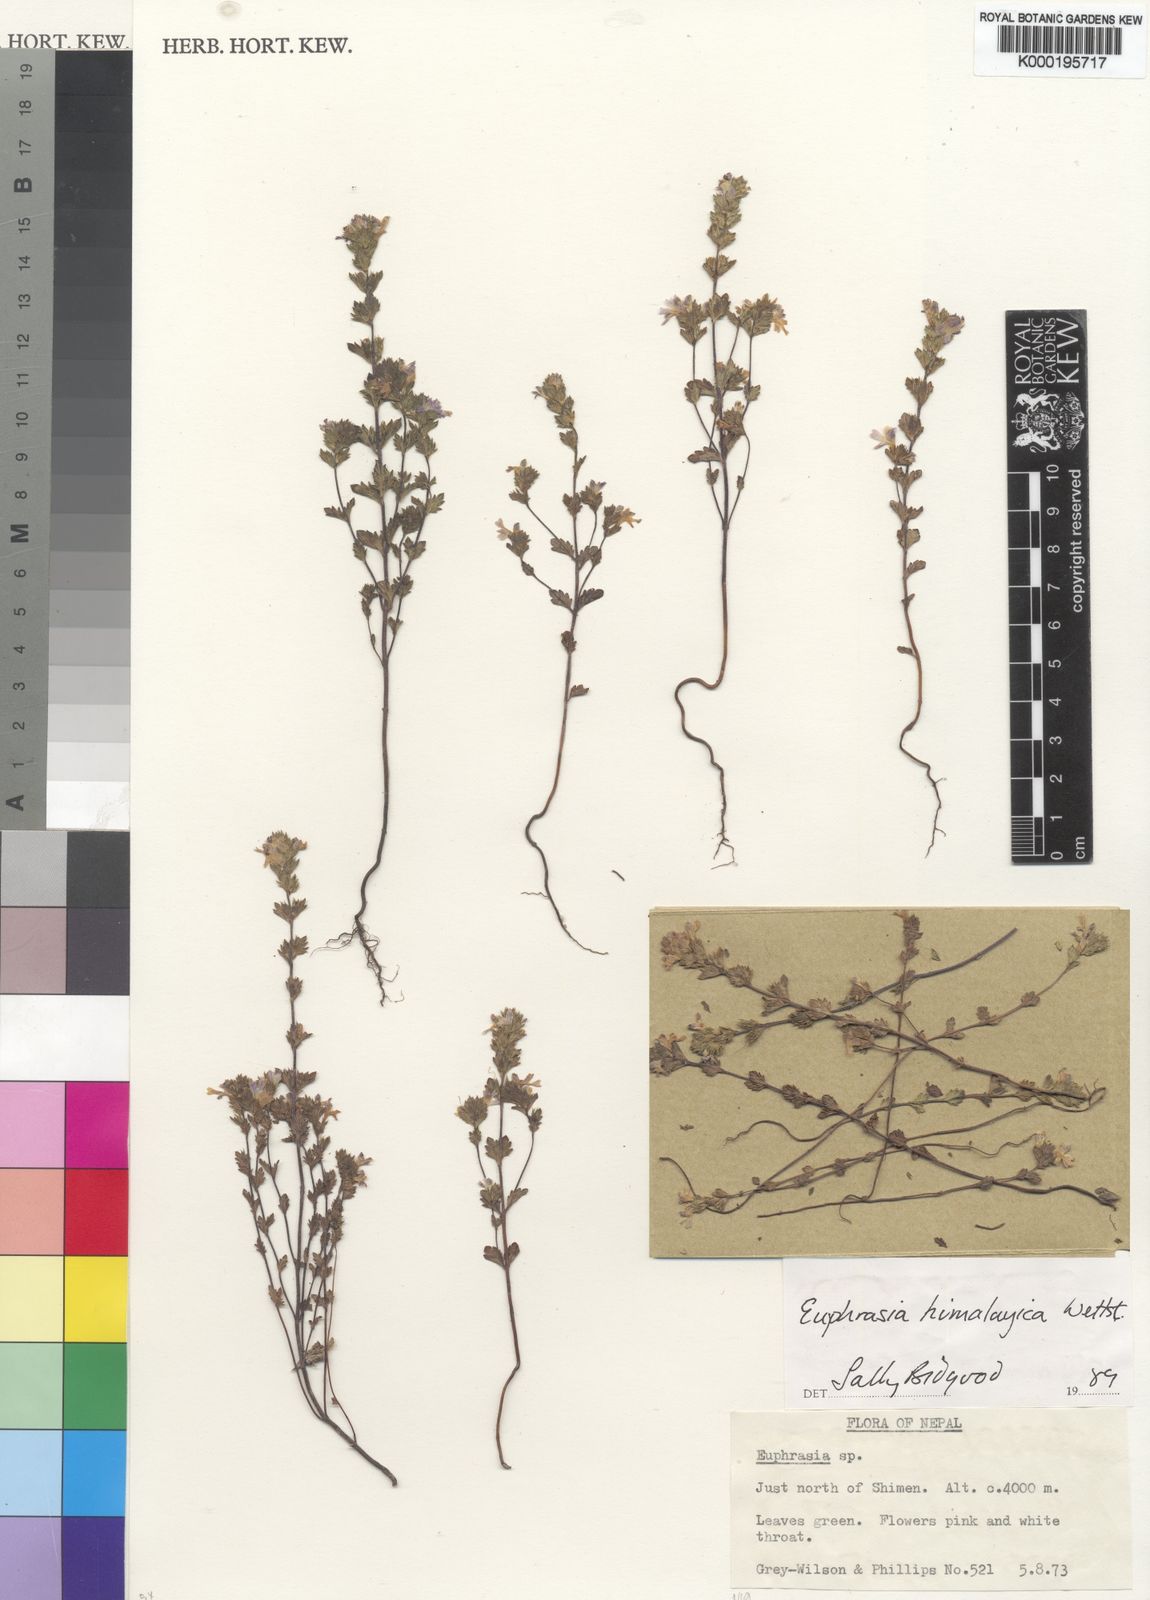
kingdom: Plantae
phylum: Tracheophyta
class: Magnoliopsida
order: Lamiales
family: Orobanchaceae
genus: Euphrasia
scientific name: Euphrasia himalayica
